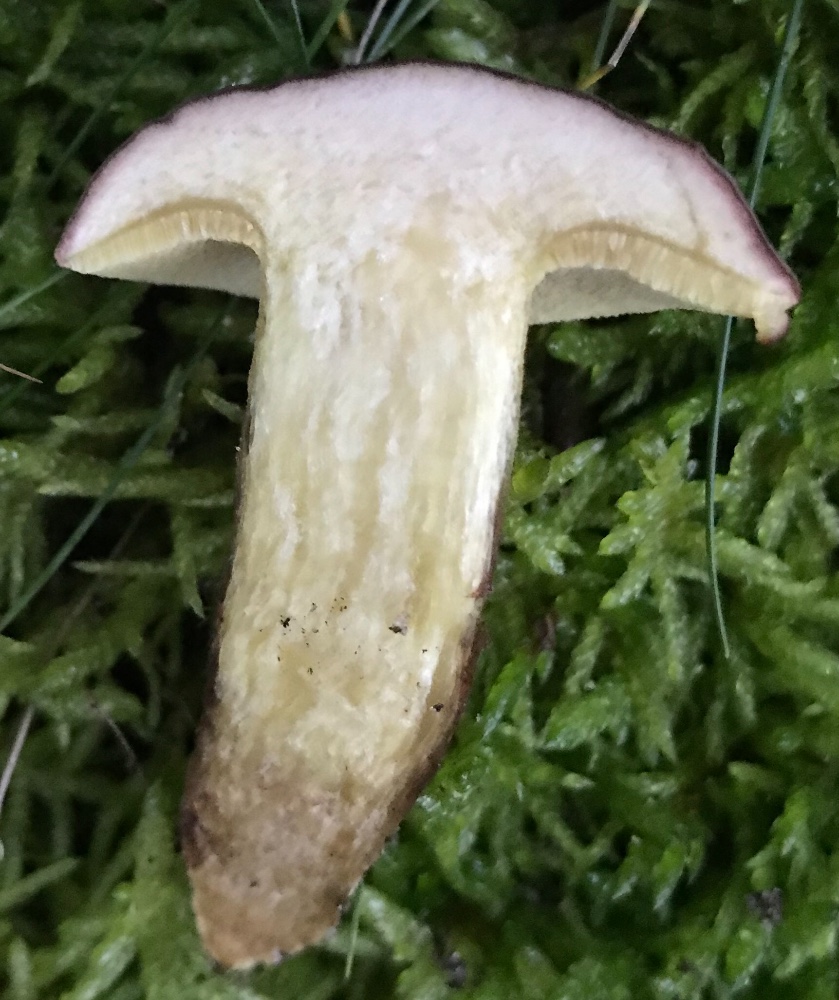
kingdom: Fungi
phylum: Basidiomycota
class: Agaricomycetes
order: Boletales
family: Boletaceae
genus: Xerocomellus
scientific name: Xerocomellus pruinatus
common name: dugget rørhat
